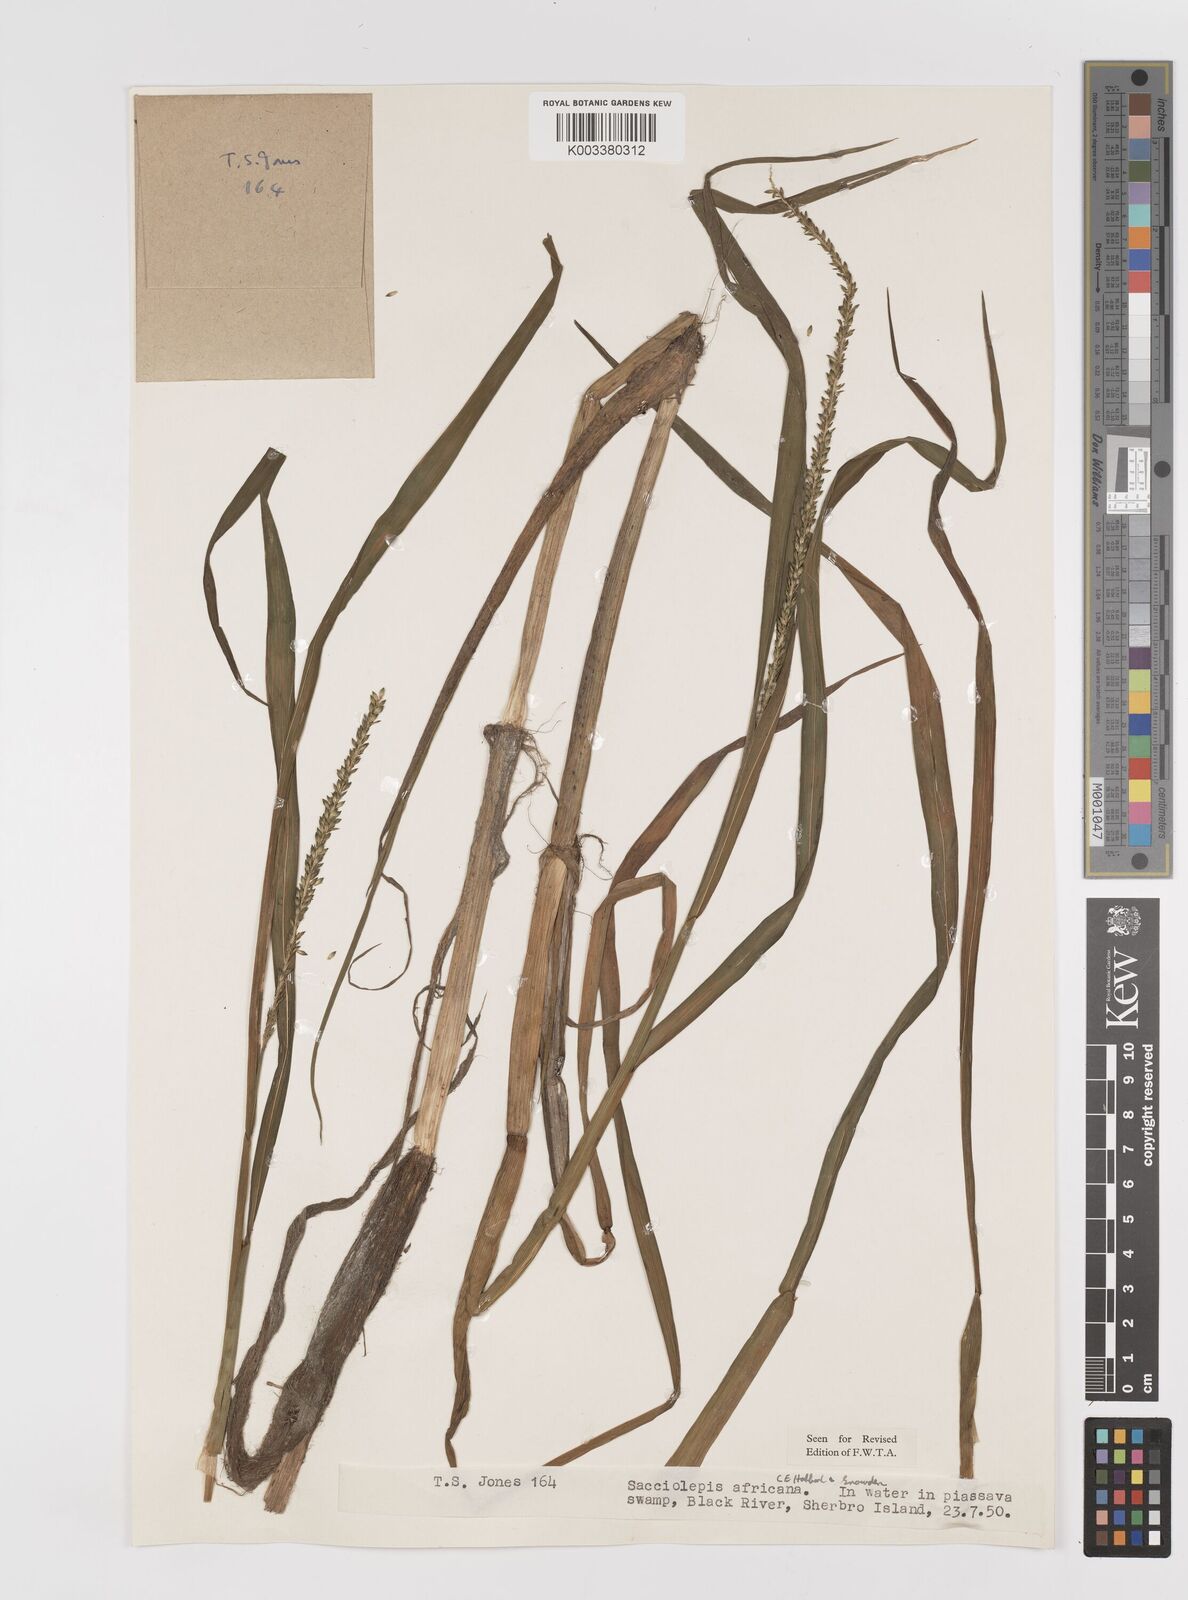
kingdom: Plantae
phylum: Tracheophyta
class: Liliopsida
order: Poales
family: Poaceae
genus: Sacciolepis
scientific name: Sacciolepis africana
